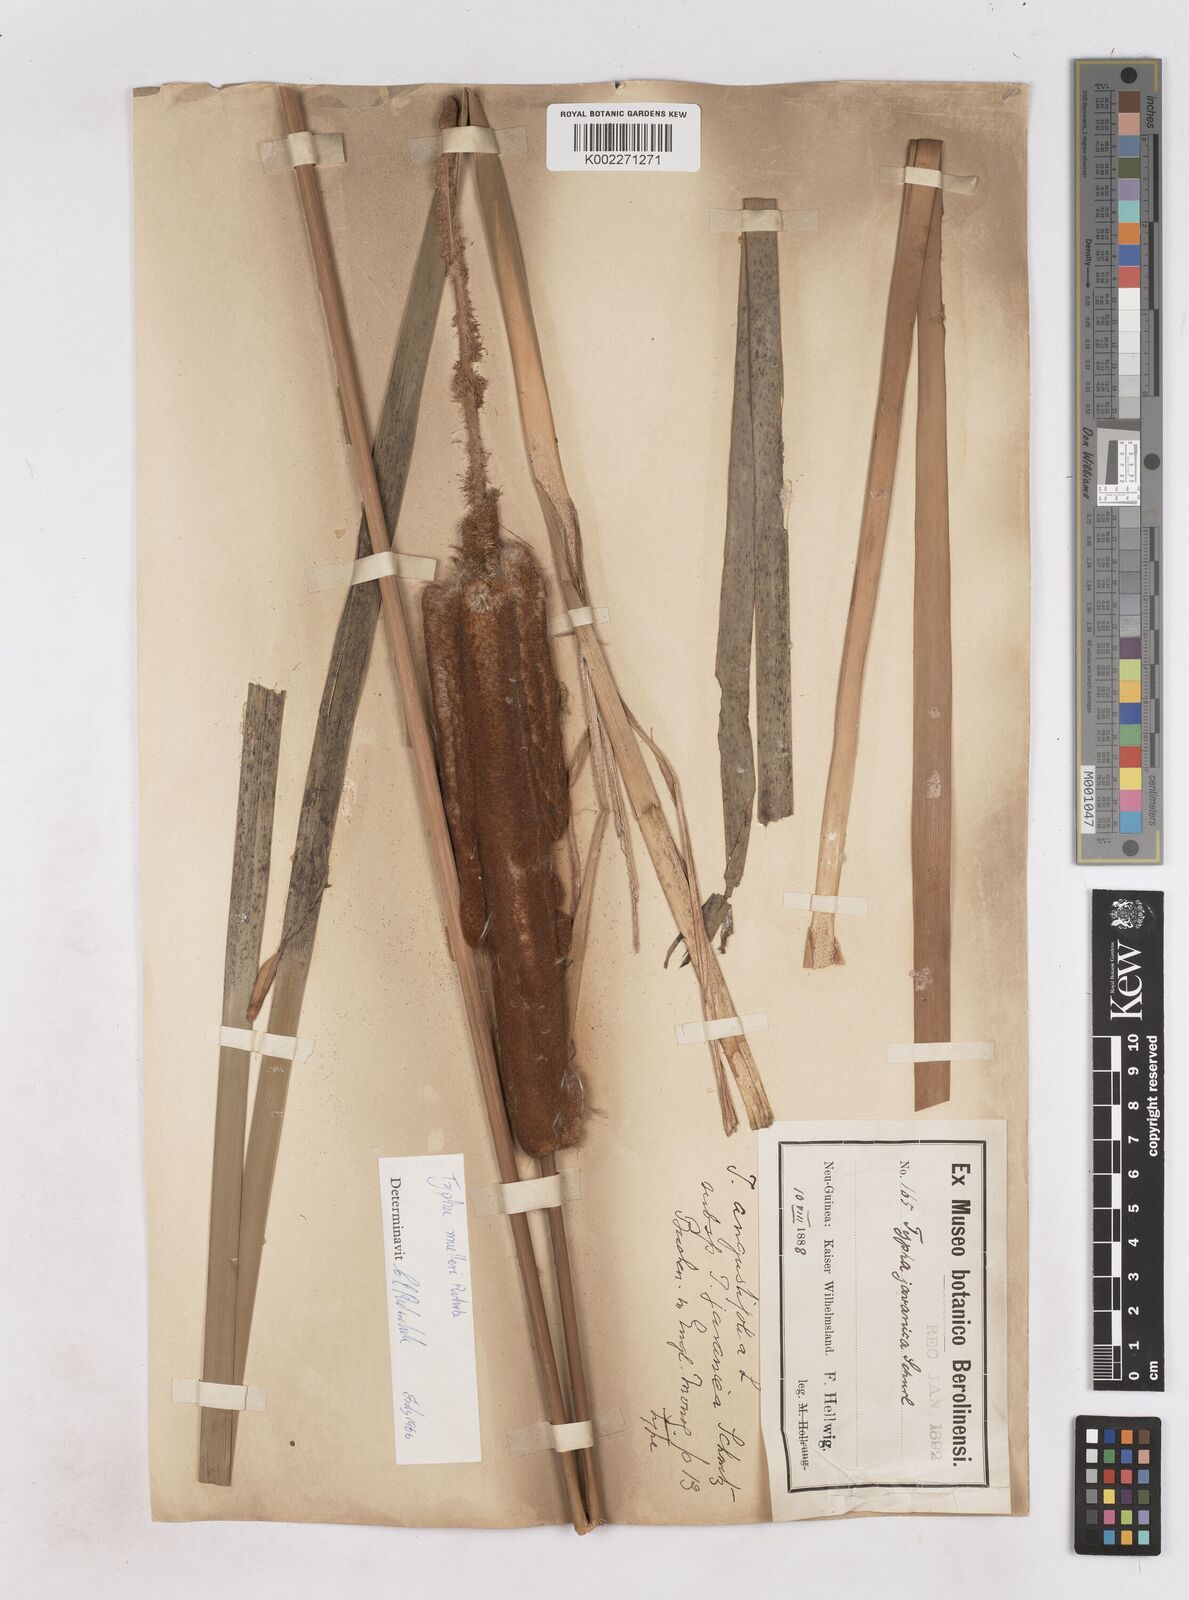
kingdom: Plantae
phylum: Tracheophyta
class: Liliopsida
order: Poales
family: Typhaceae
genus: Typha
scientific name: Typha orientalis
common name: Bullrush
